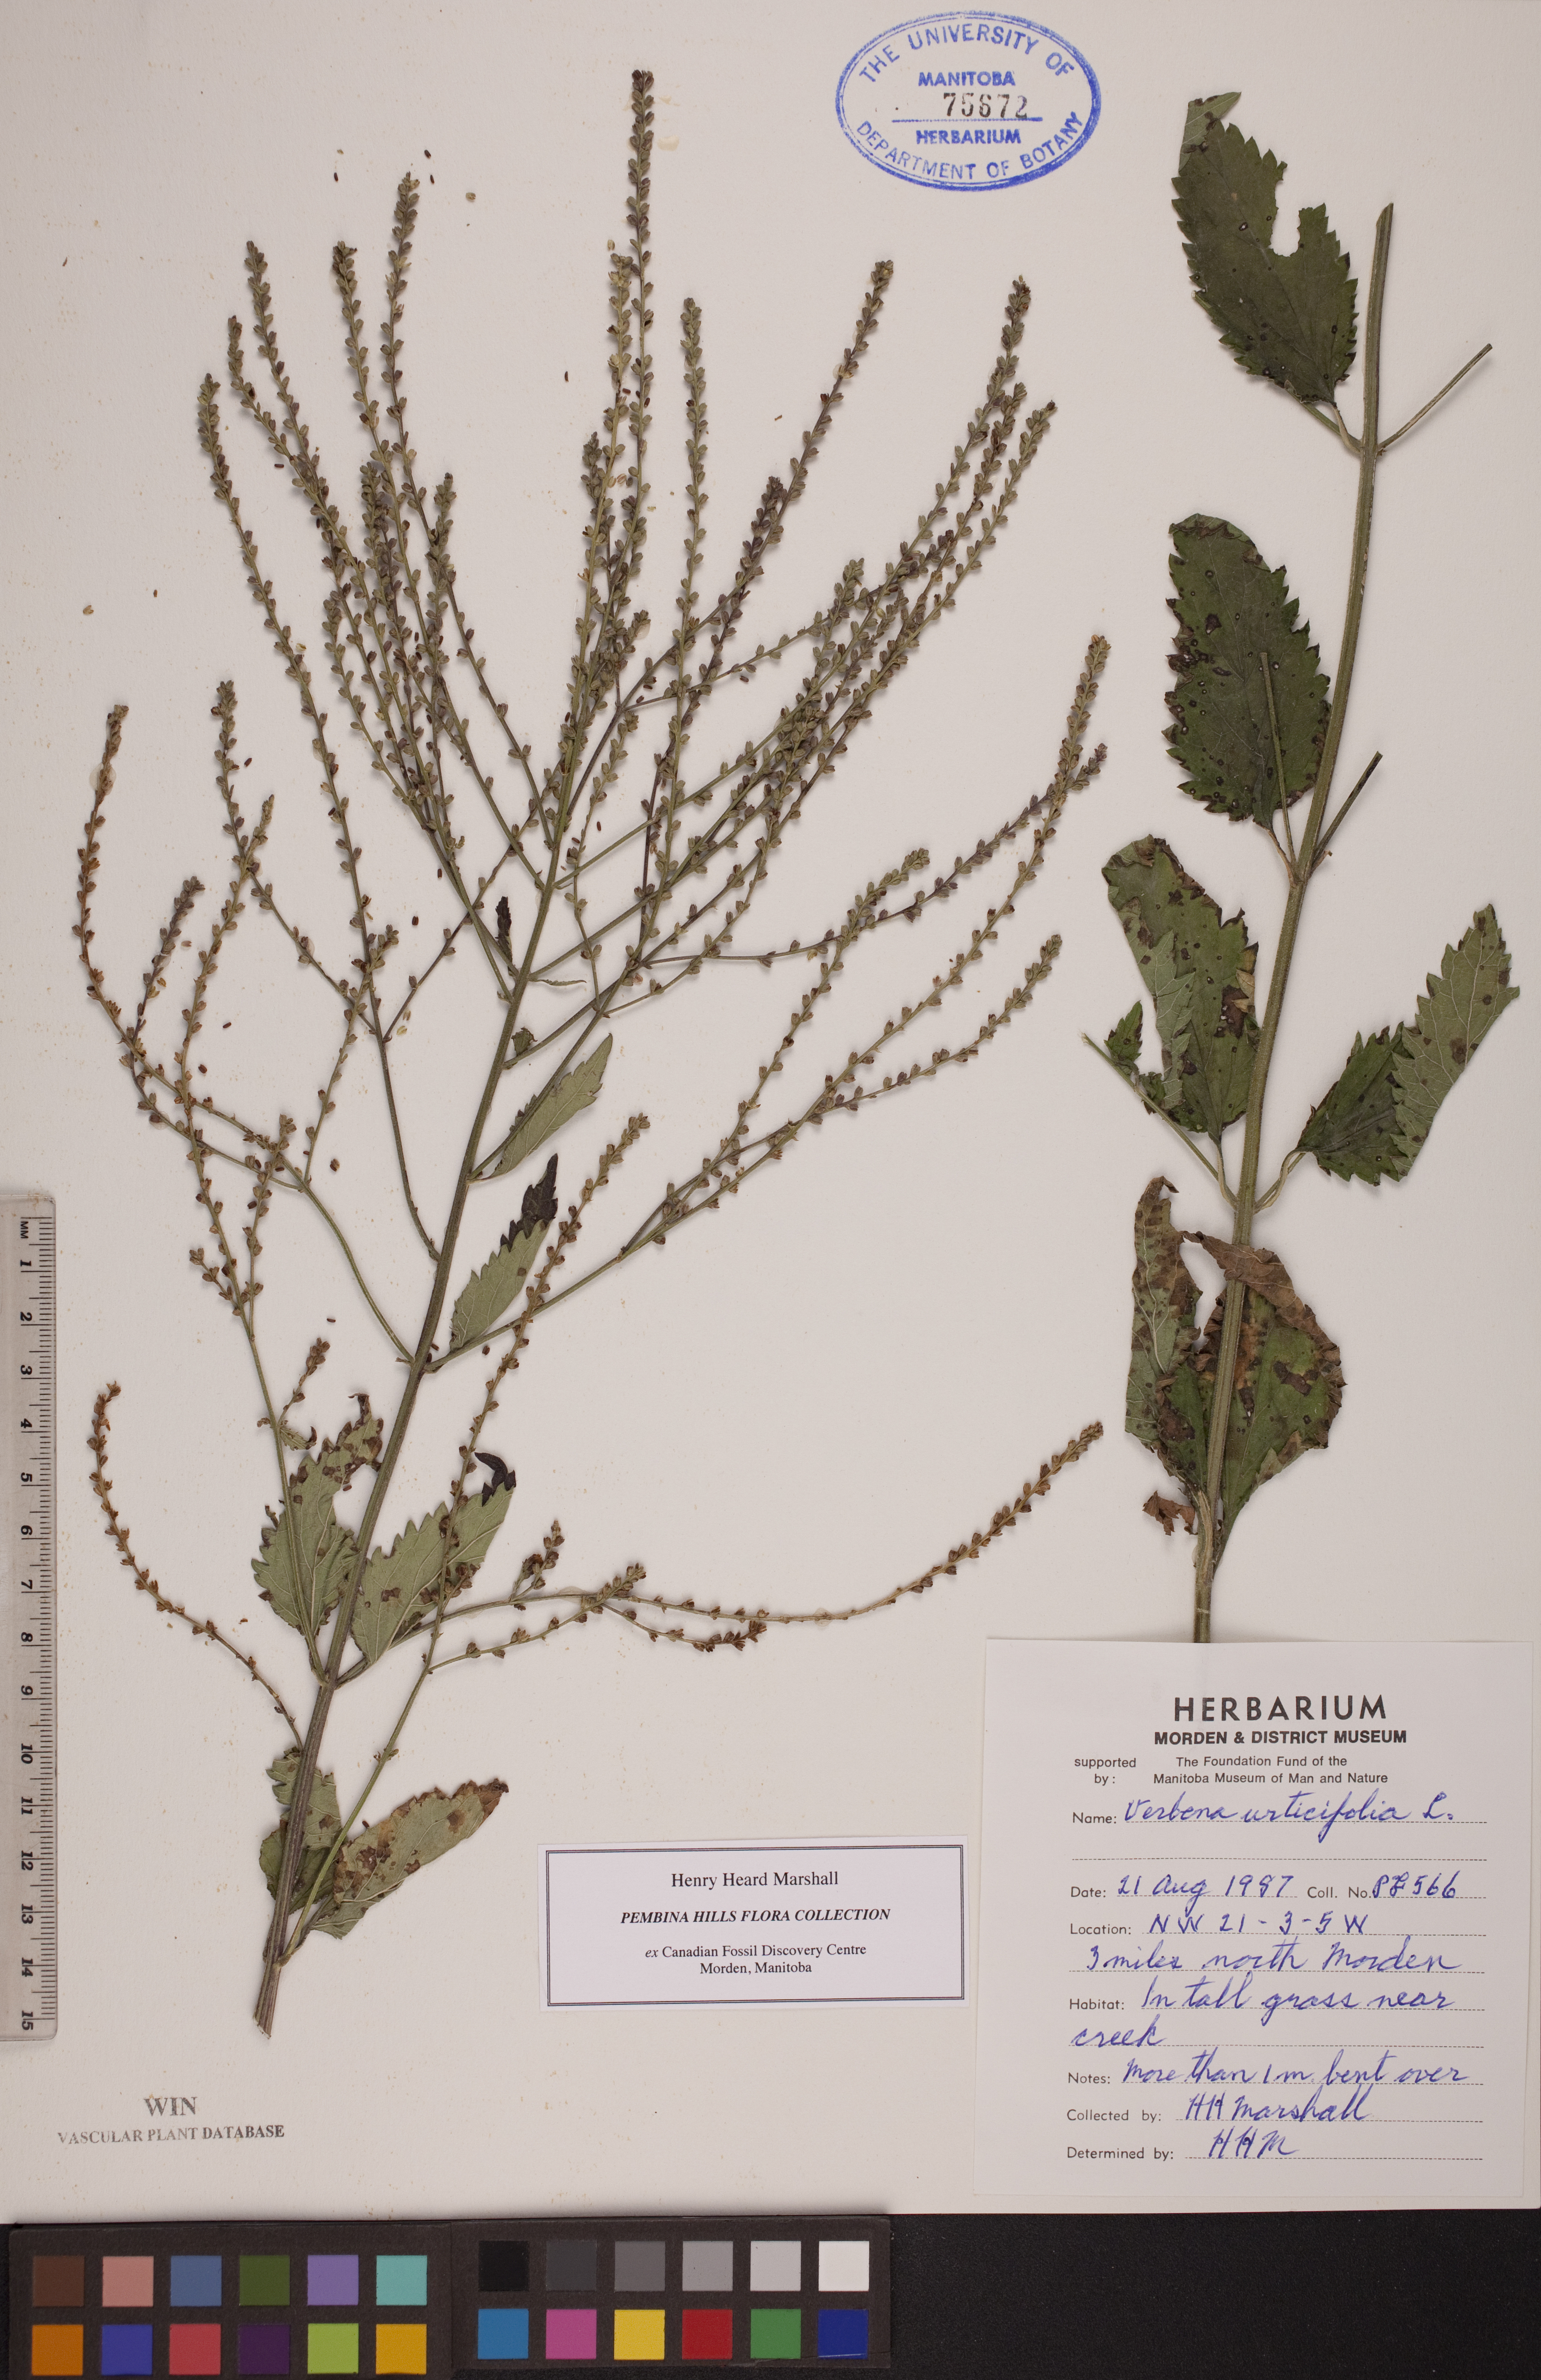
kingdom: Plantae
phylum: Tracheophyta
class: Magnoliopsida
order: Lamiales
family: Verbenaceae
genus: Verbena
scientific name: Verbena urticifolia
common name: Nettle-leaved vervain
